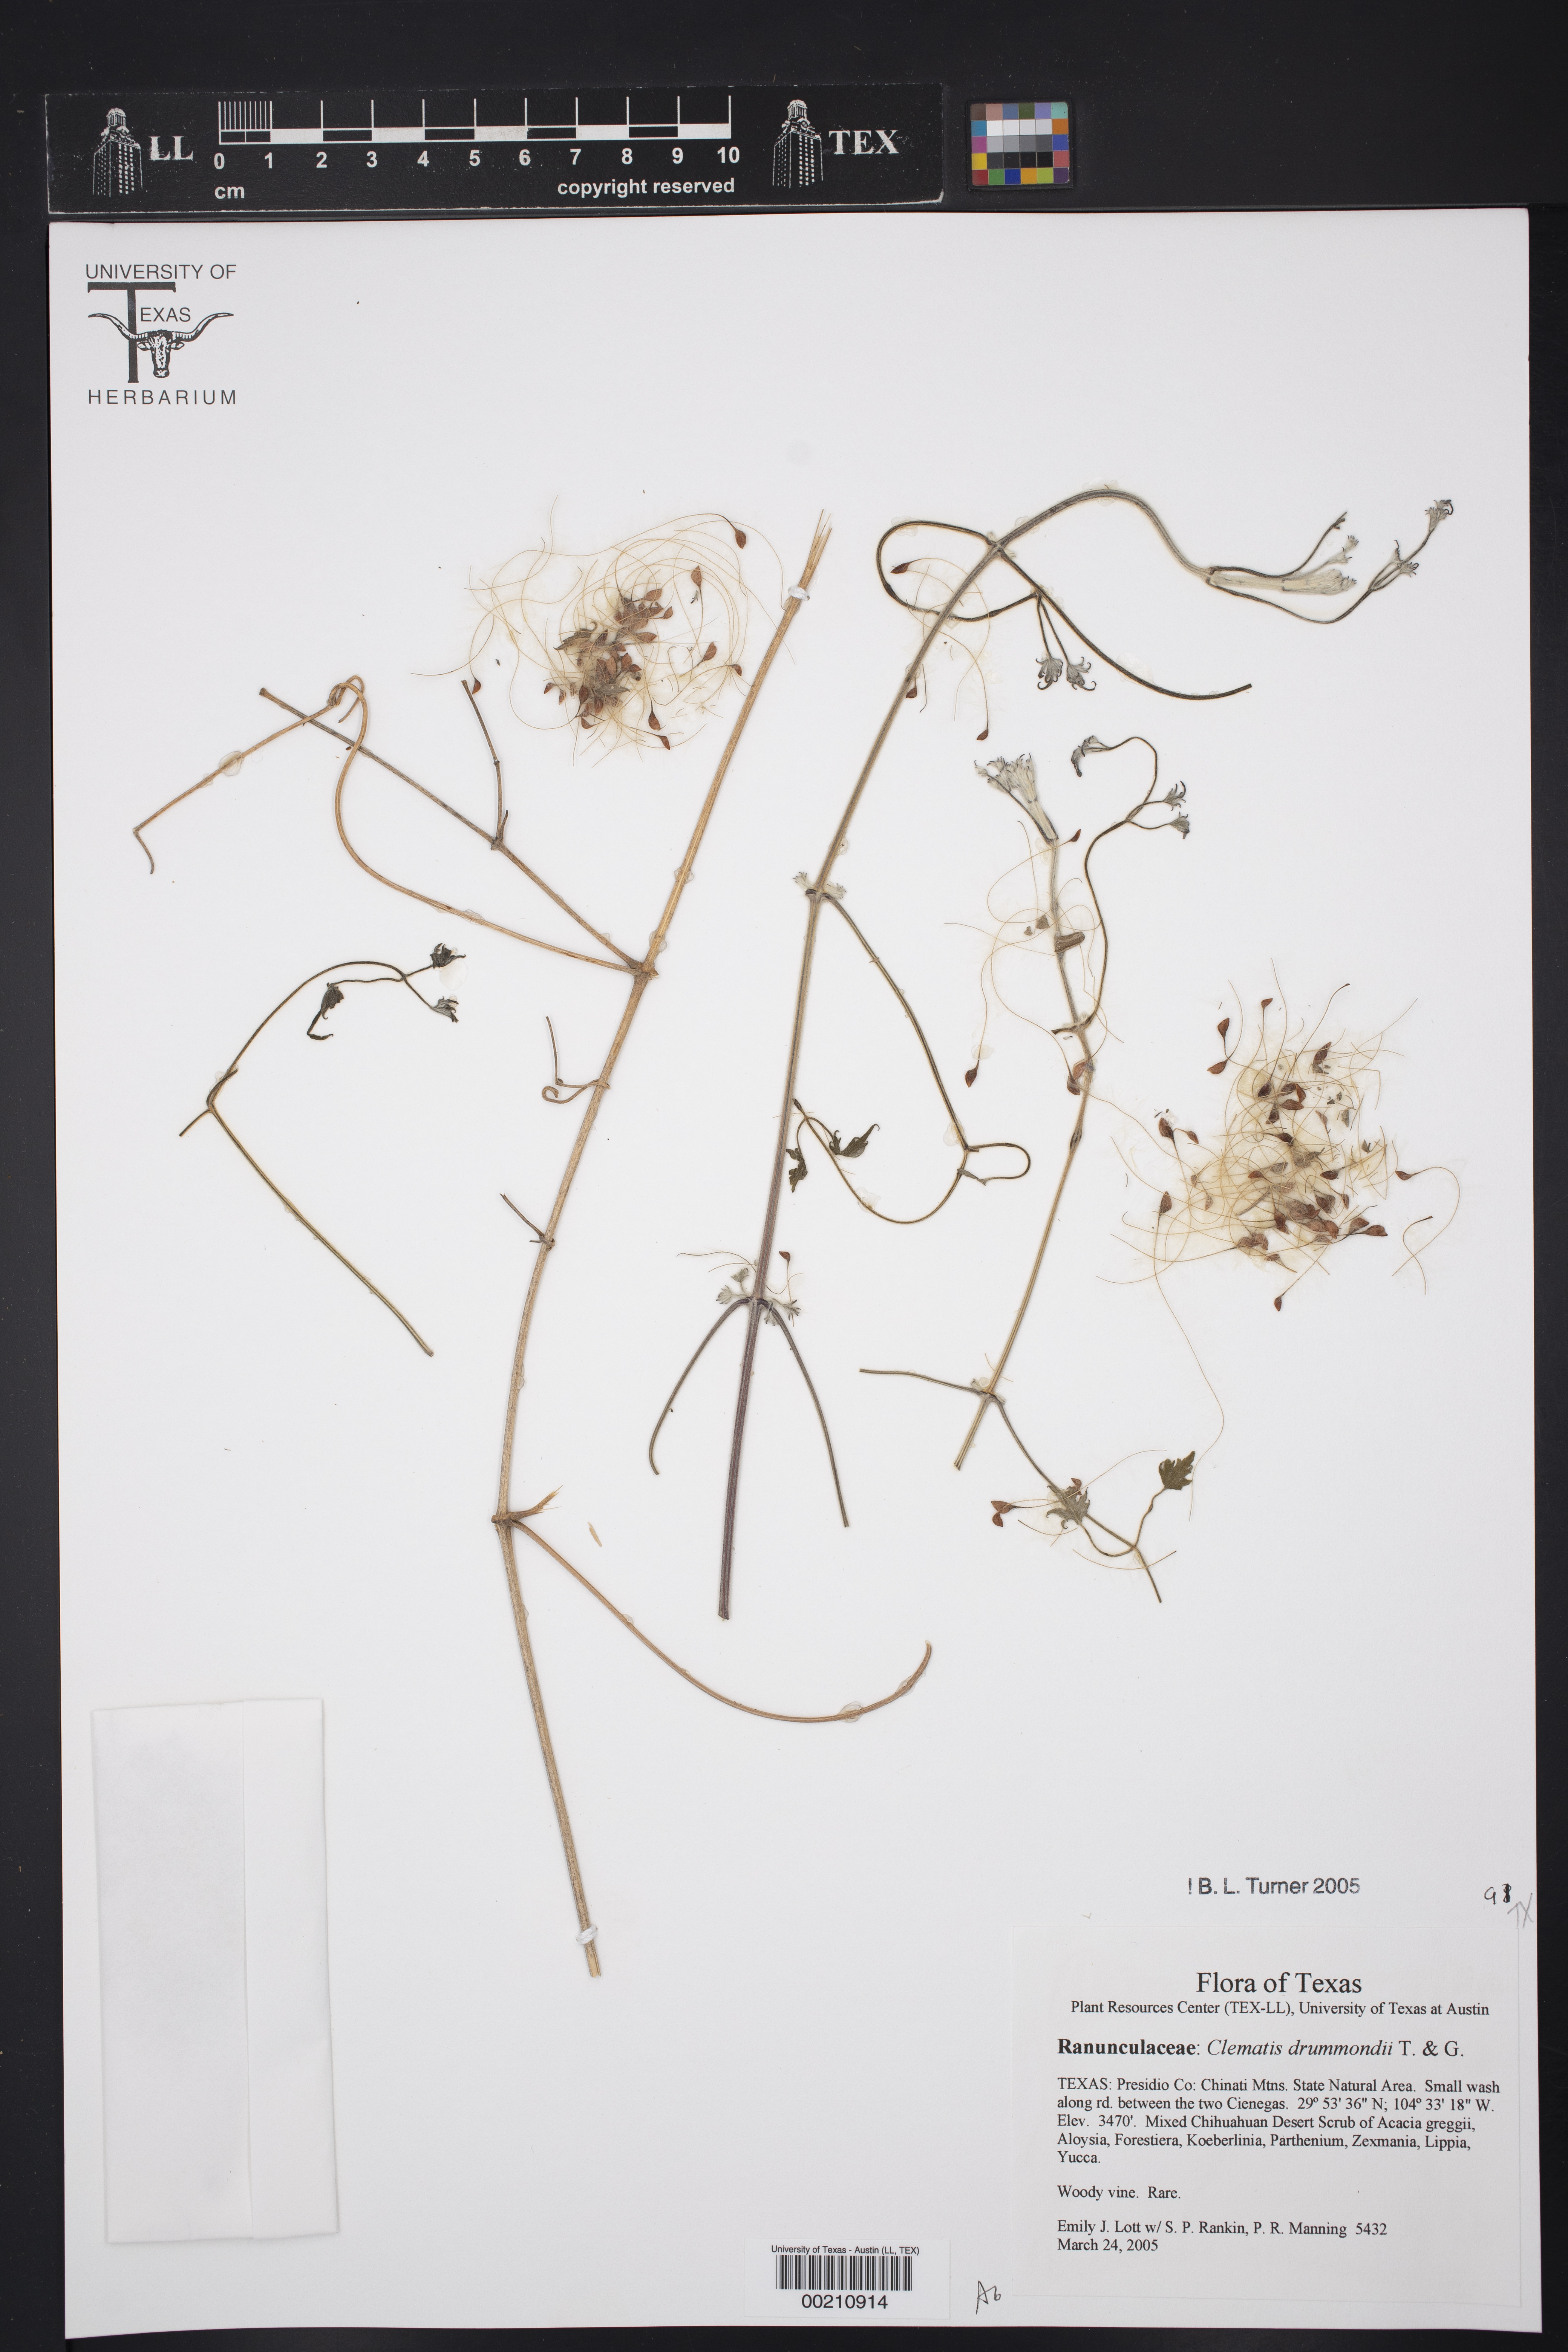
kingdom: Plantae
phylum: Tracheophyta
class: Magnoliopsida
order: Ranunculales
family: Ranunculaceae
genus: Clematis
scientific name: Clematis drummondii
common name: Texas virgin's bower
